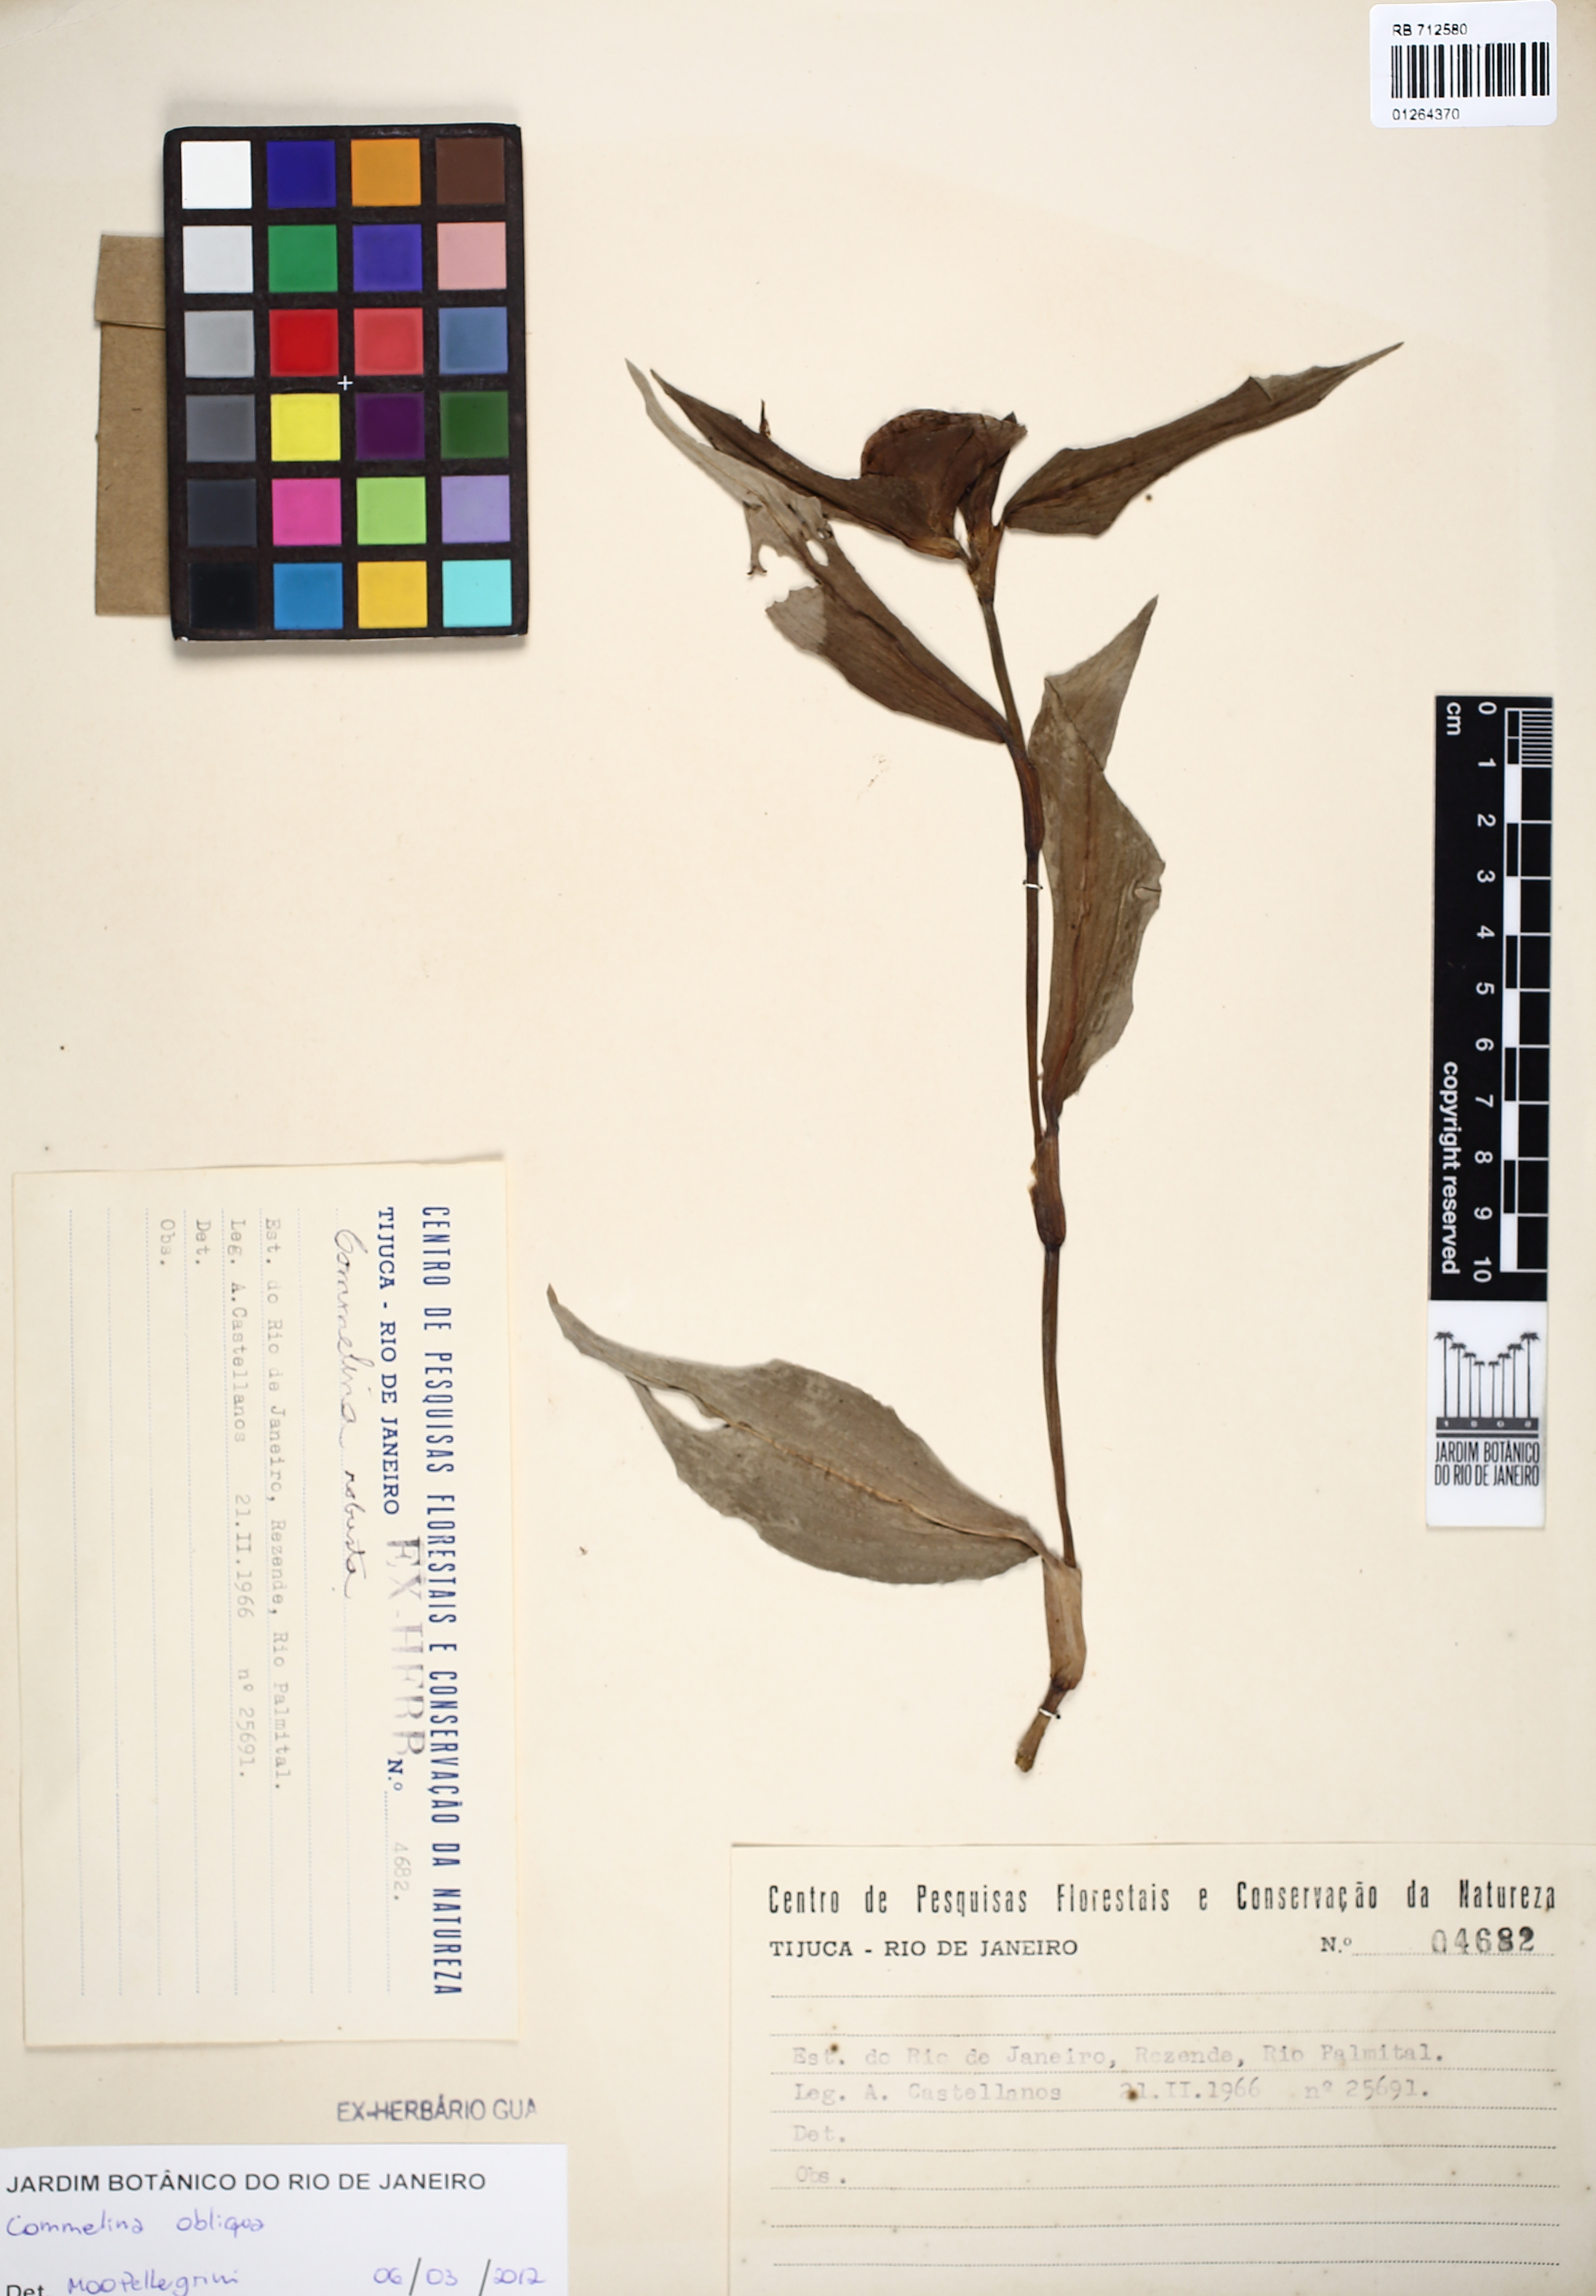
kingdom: Plantae
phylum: Tracheophyta
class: Liliopsida
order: Commelinales
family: Commelinaceae
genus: Commelina
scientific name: Commelina obliqua
